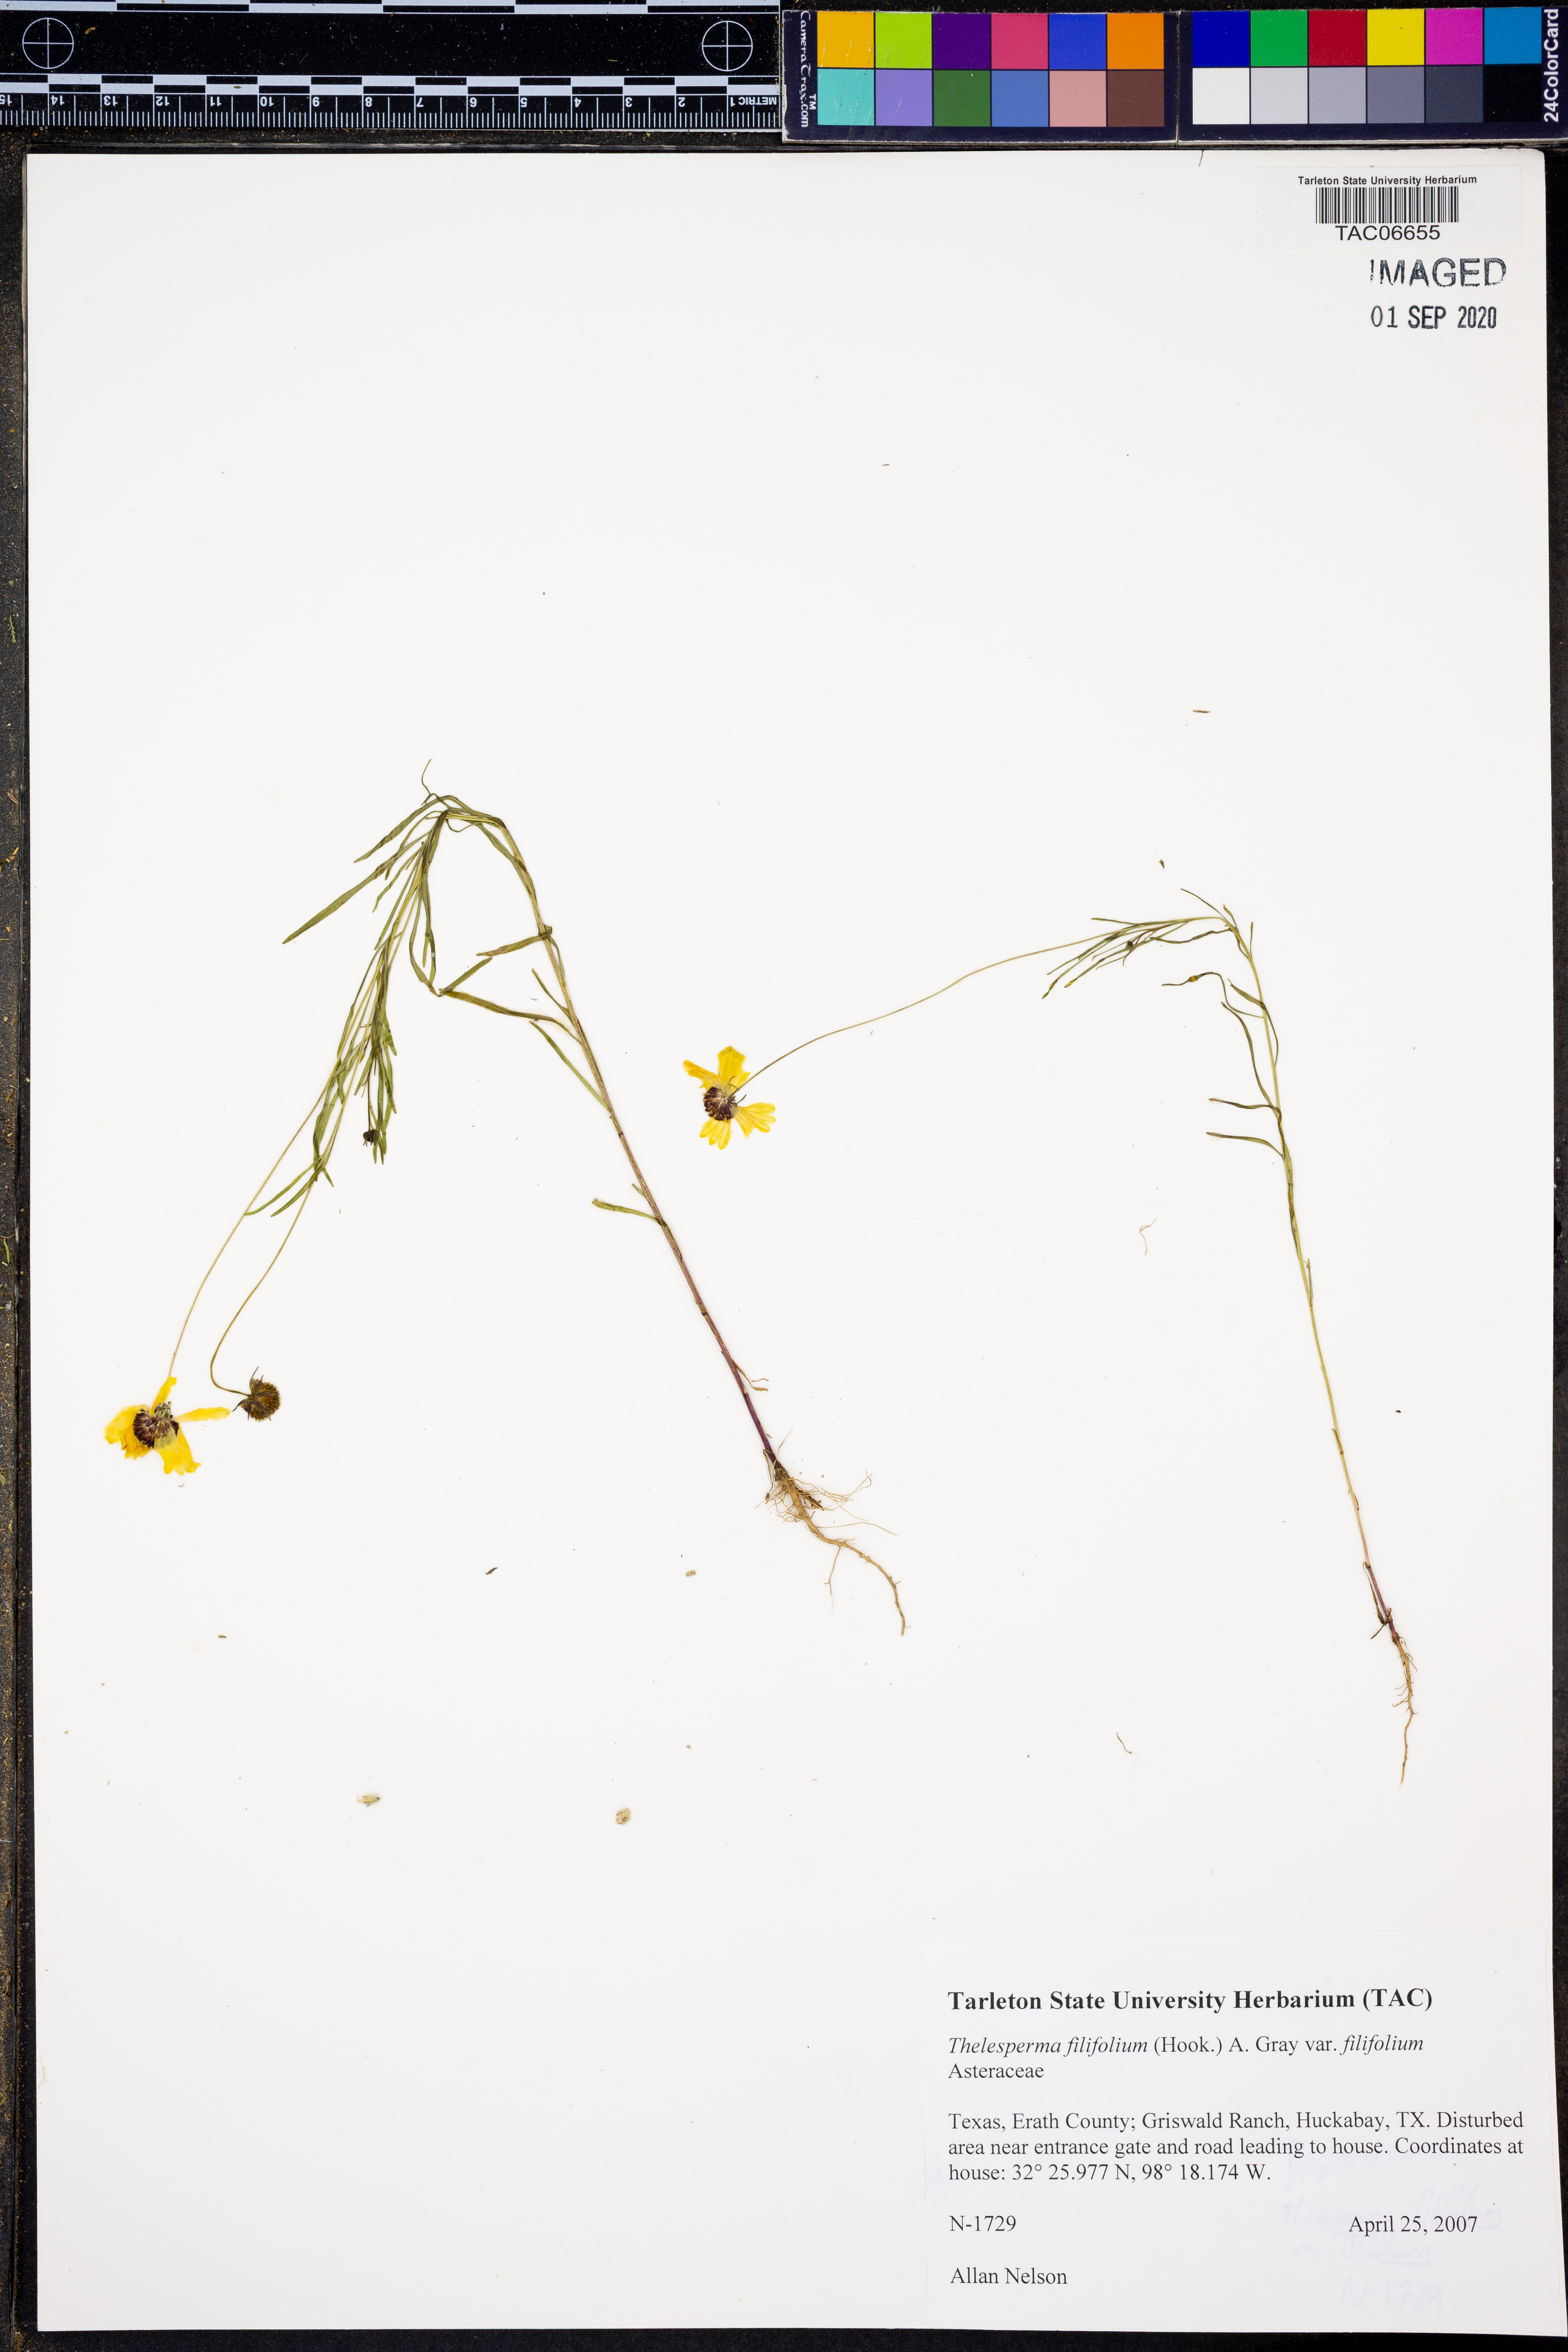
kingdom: Plantae
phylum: Tracheophyta
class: Magnoliopsida
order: Asterales
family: Asteraceae
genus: Thelesperma
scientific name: Thelesperma filifolium
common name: Stiff greenthread
